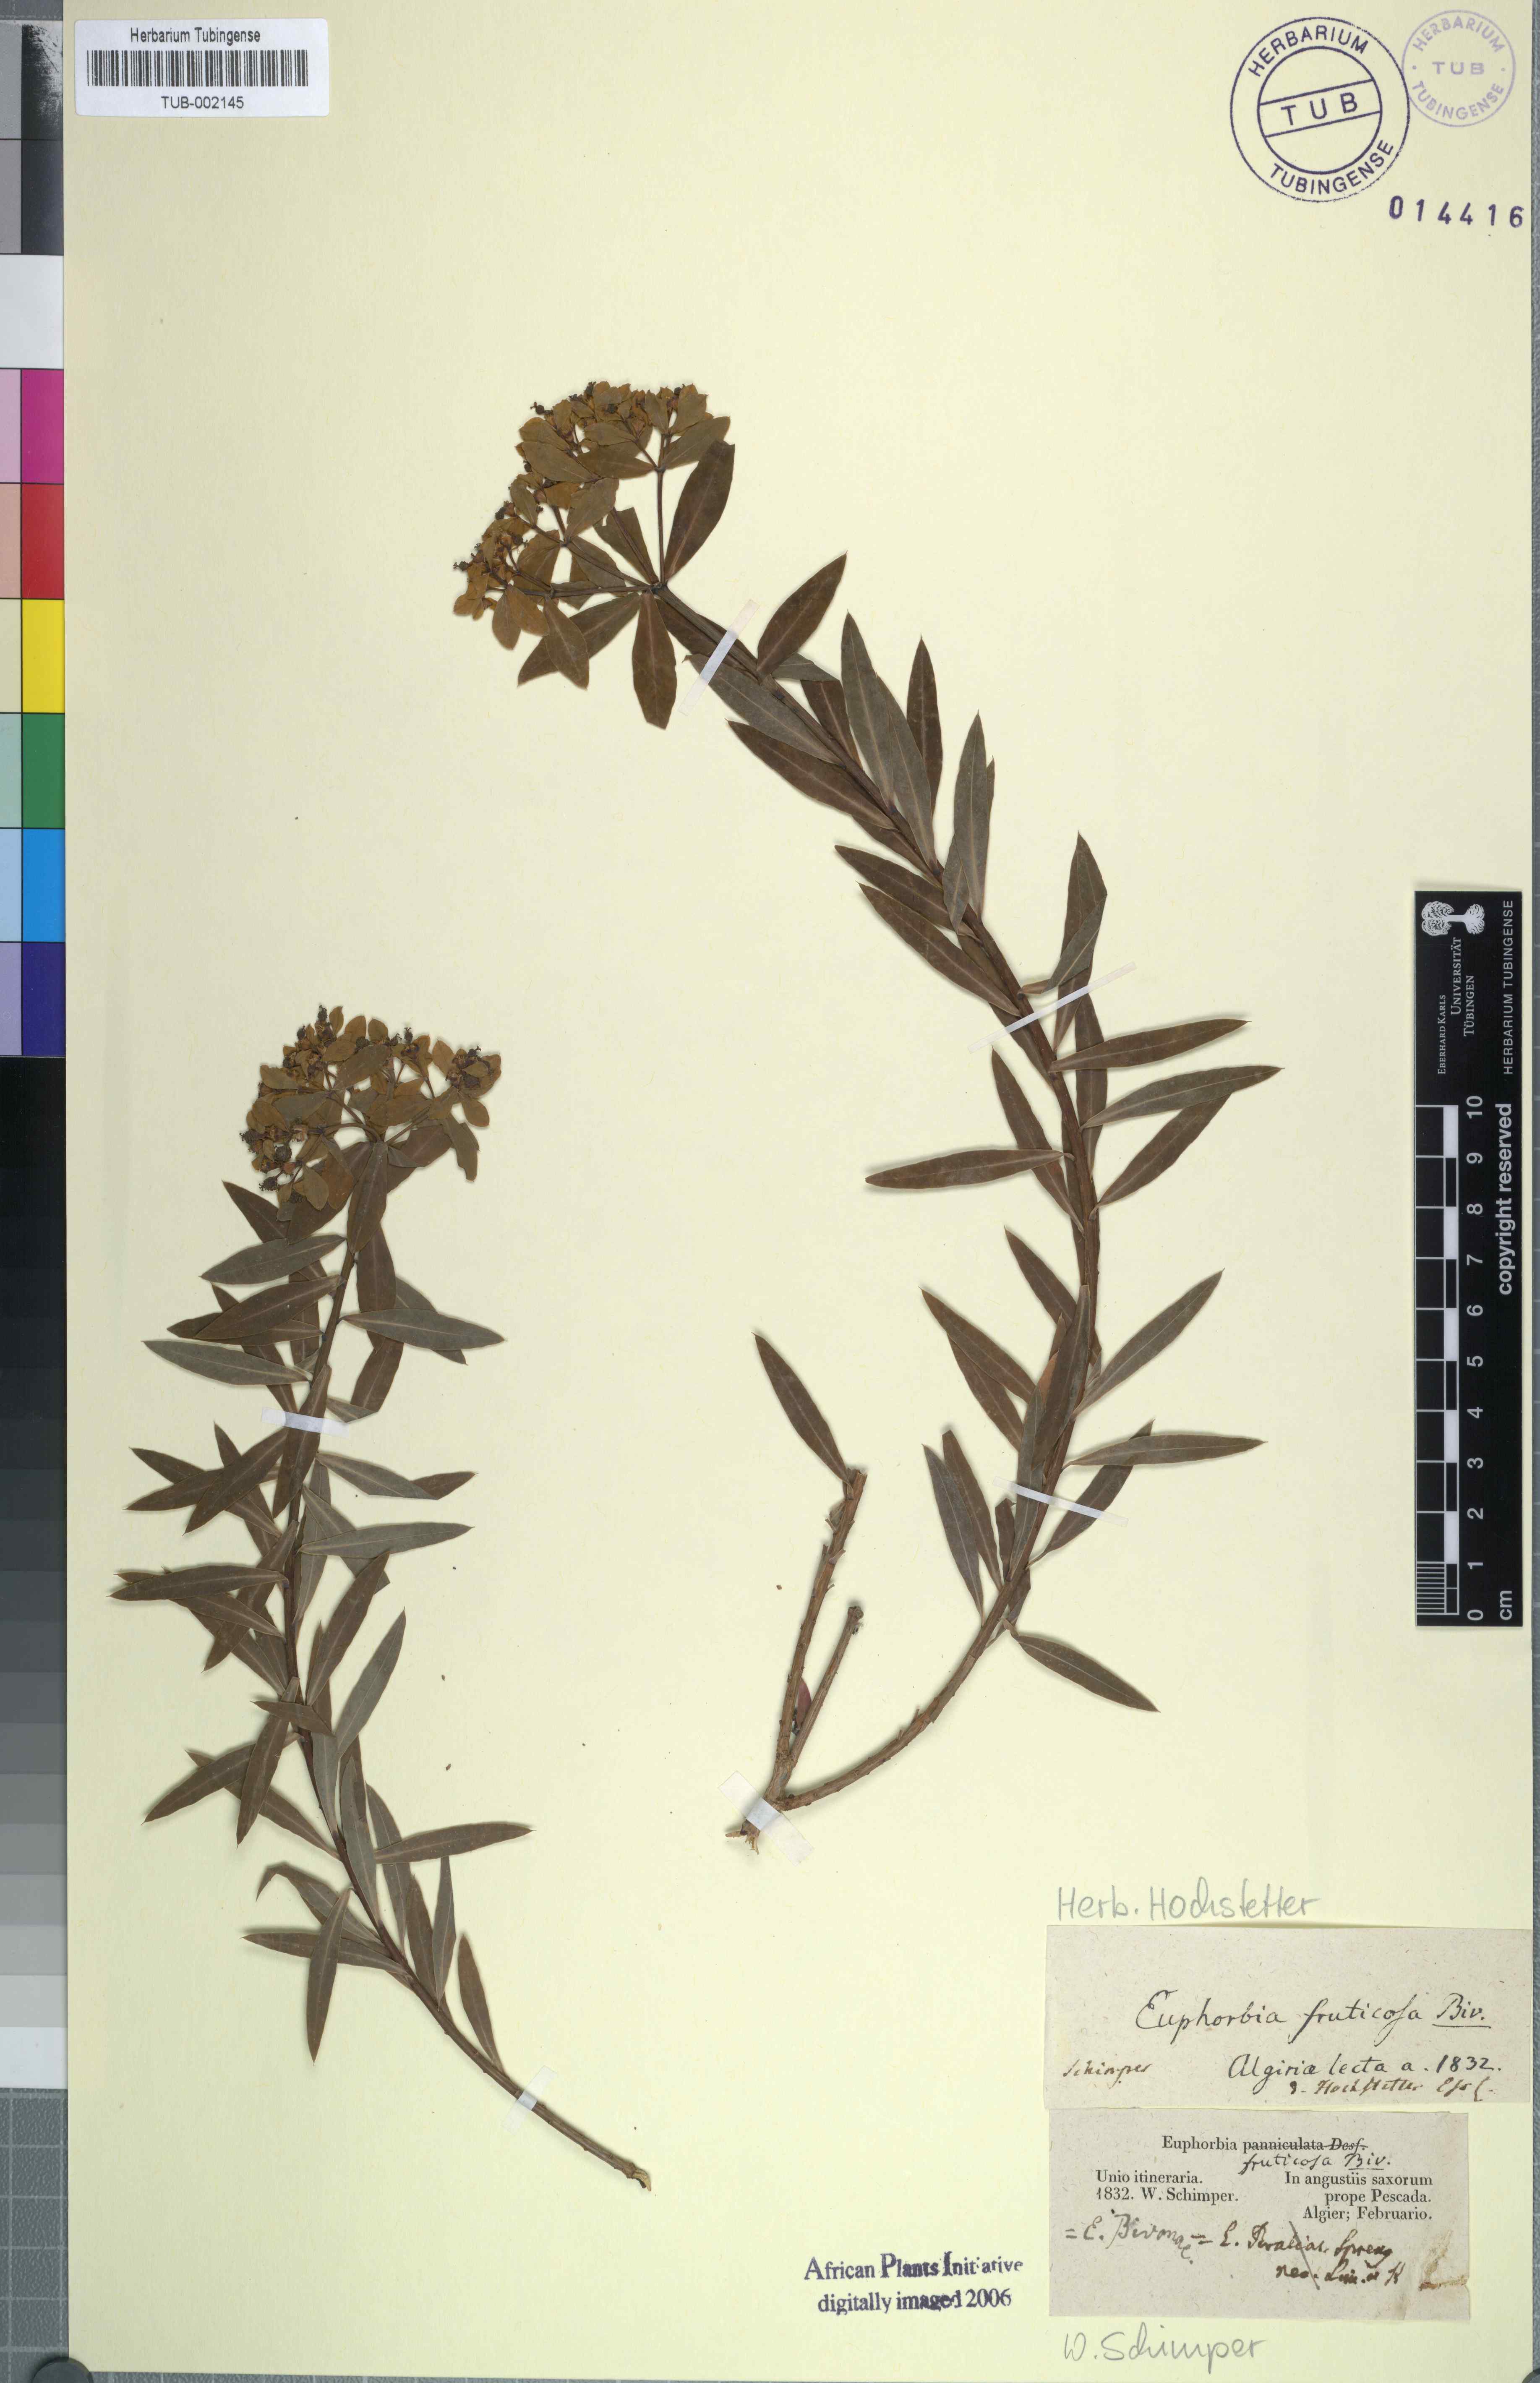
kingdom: Plantae
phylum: Tracheophyta
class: Magnoliopsida
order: Malpighiales
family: Euphorbiaceae
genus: Euphorbia
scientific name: Euphorbia bivonae
